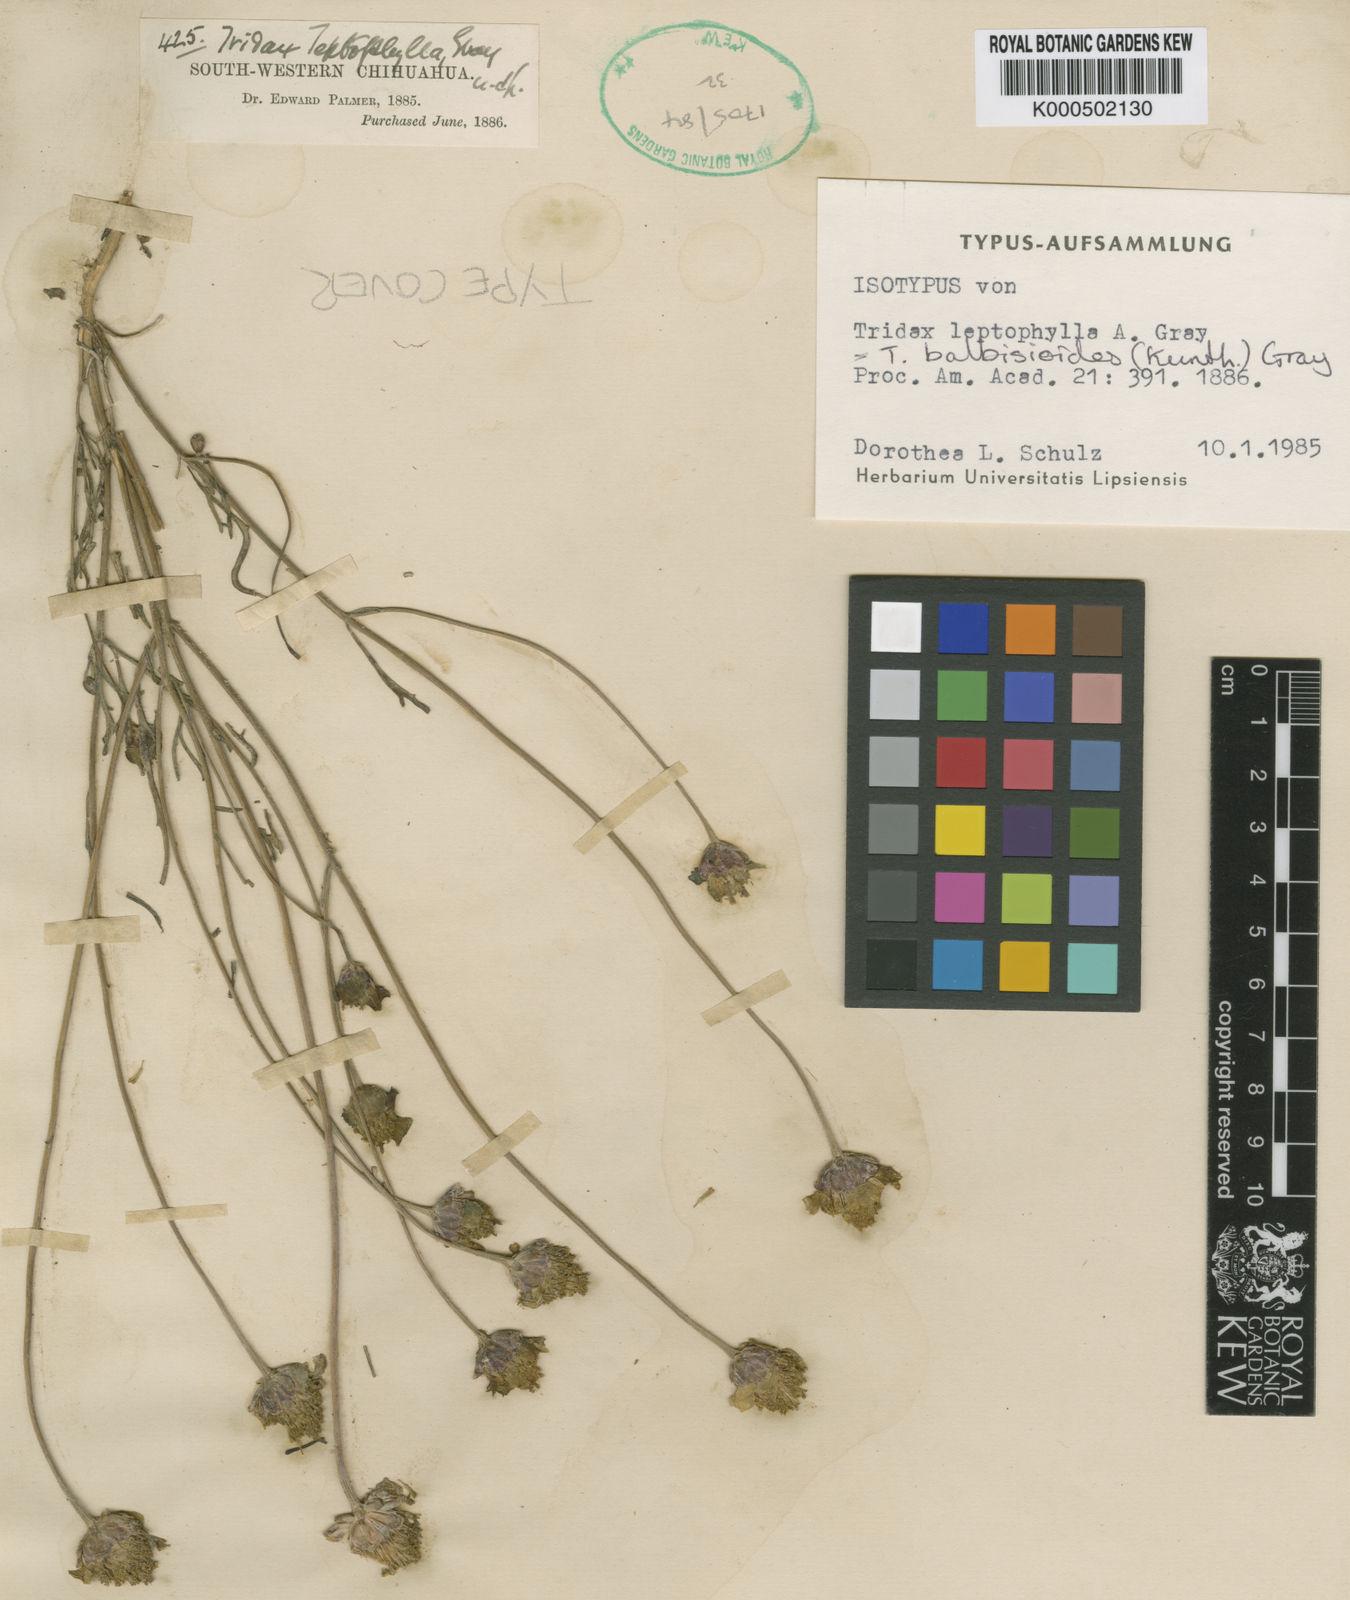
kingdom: Plantae
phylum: Tracheophyta
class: Magnoliopsida
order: Asterales
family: Asteraceae
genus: Tridax
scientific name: Tridax balbisioides
